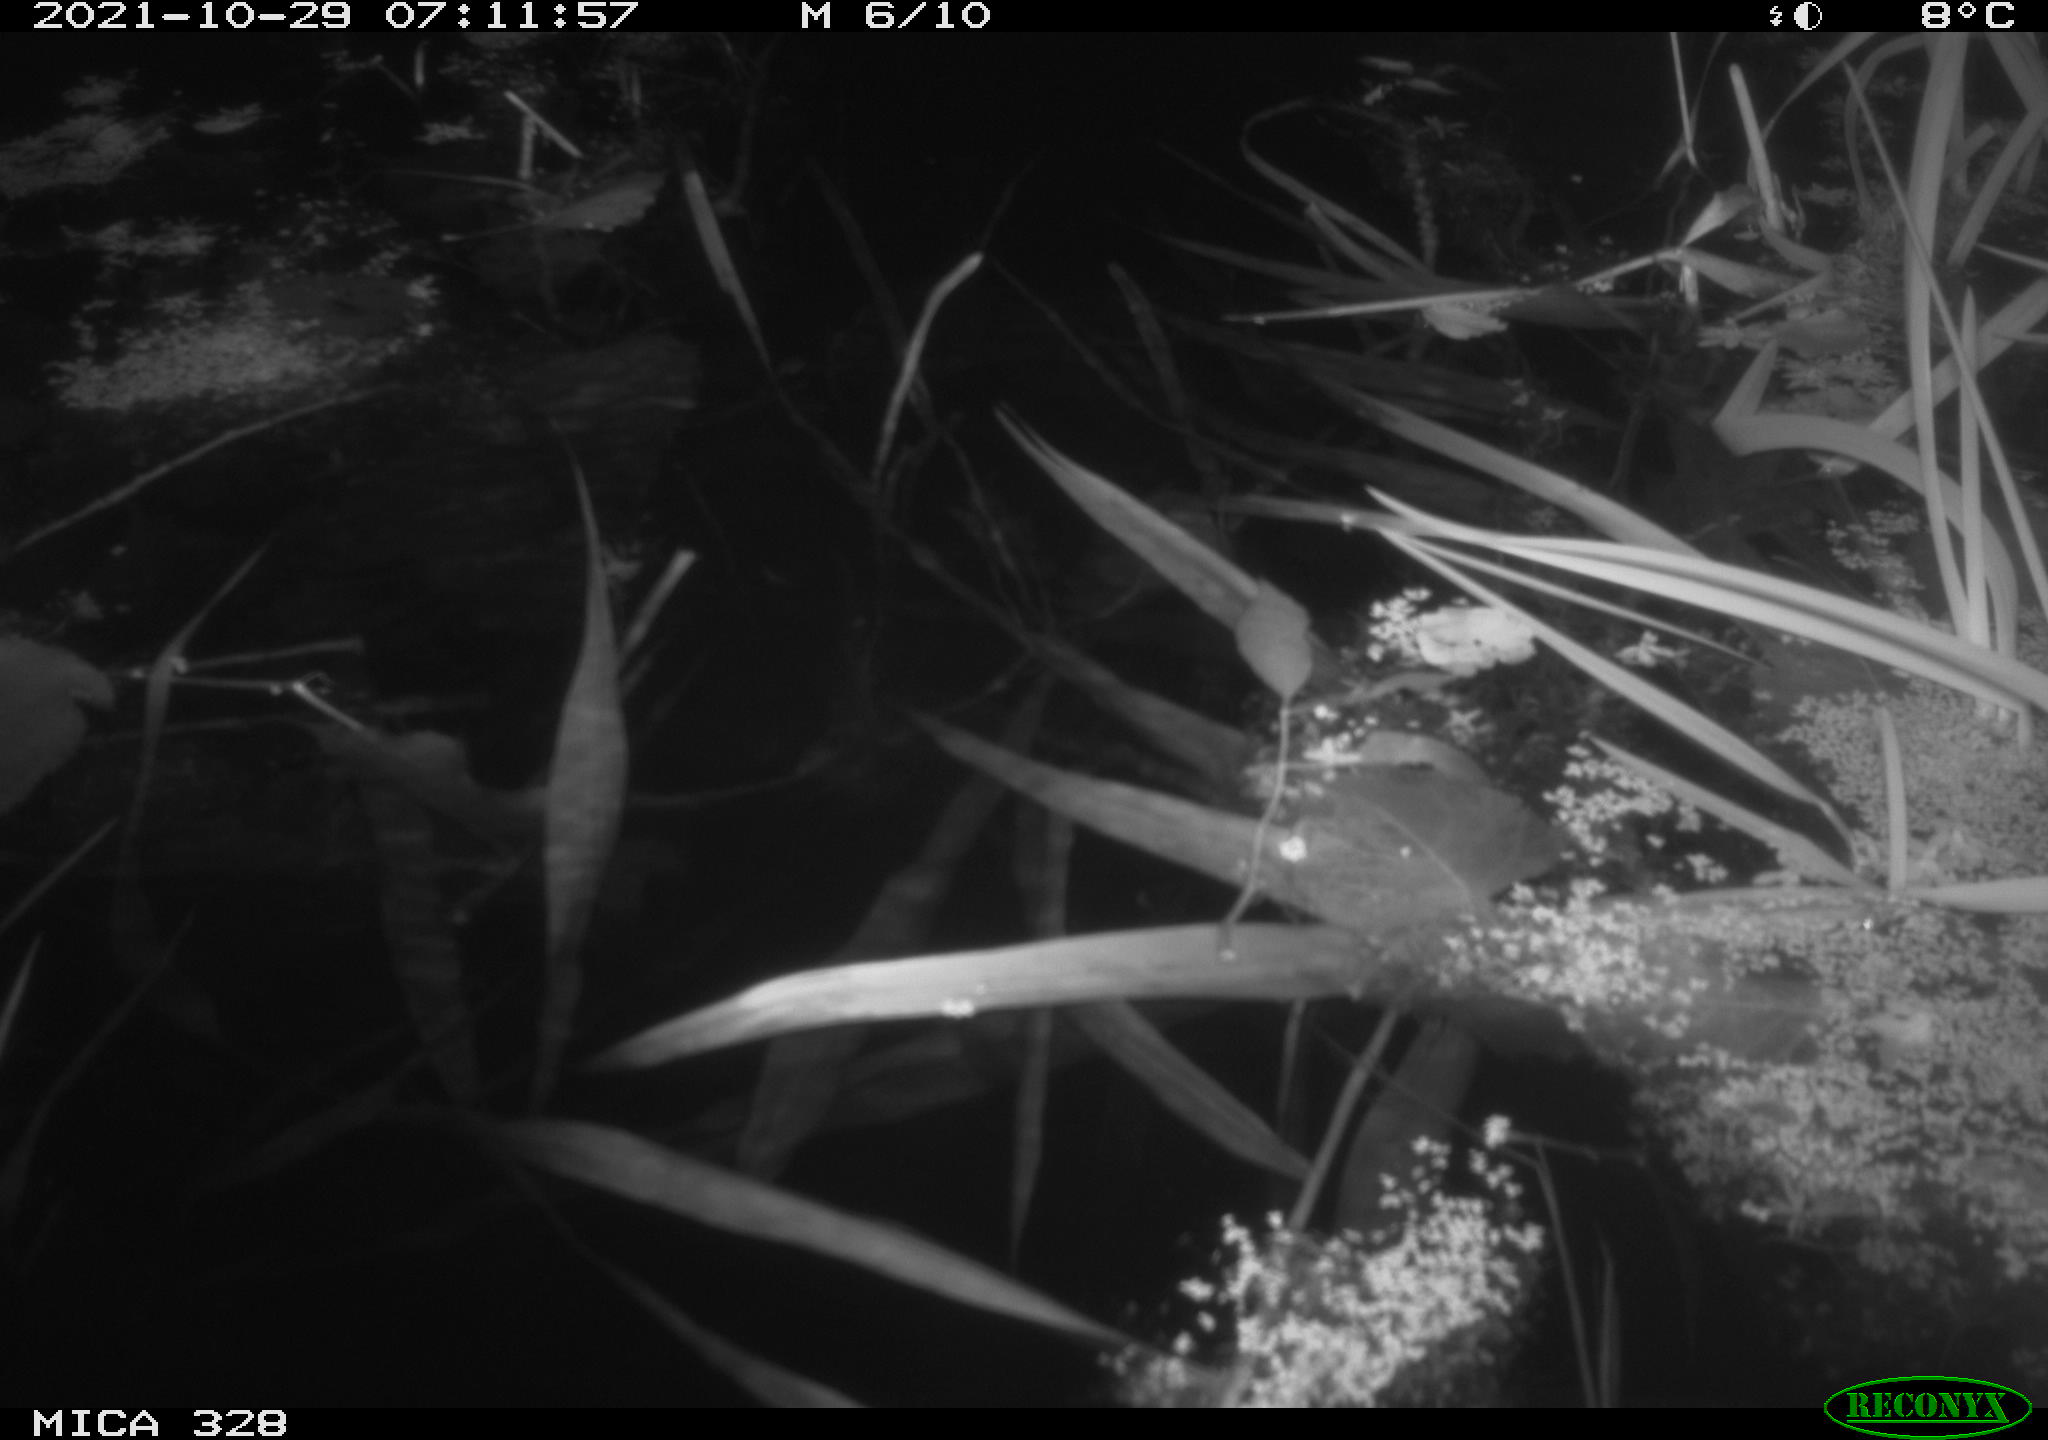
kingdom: Animalia
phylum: Chordata
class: Mammalia
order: Rodentia
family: Cricetidae
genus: Ondatra
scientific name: Ondatra zibethicus
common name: Muskrat
